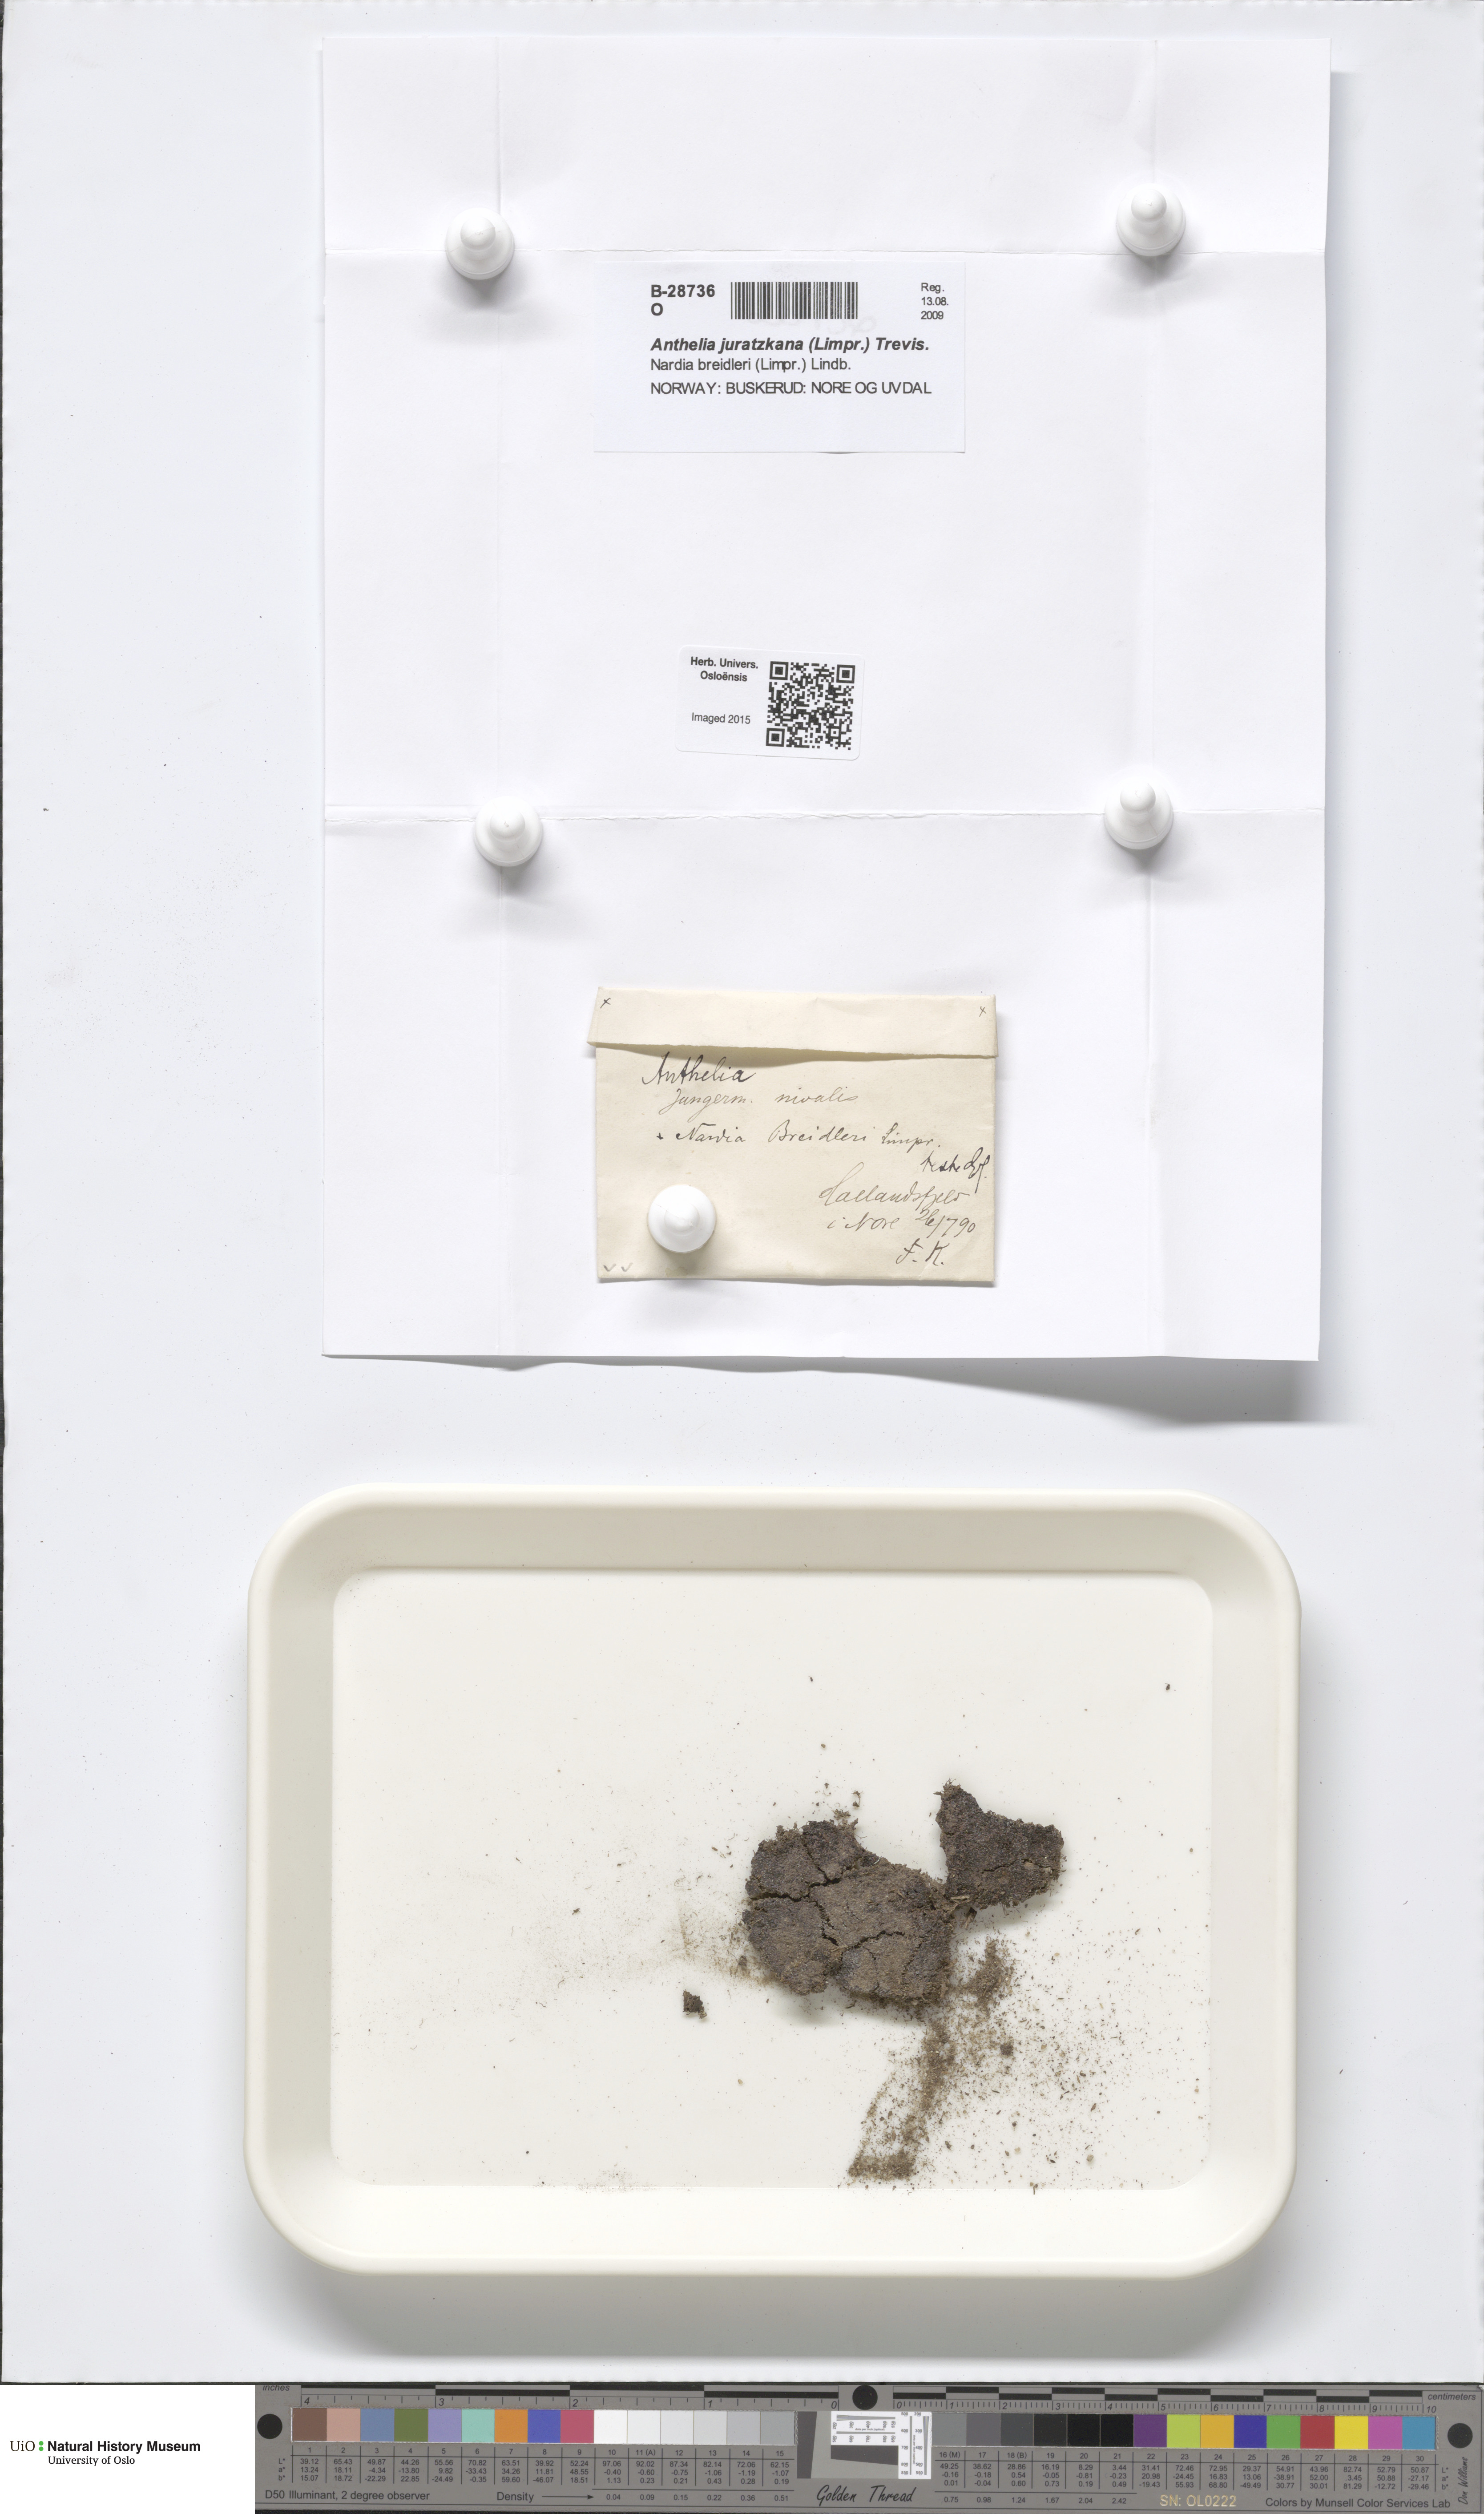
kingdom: Plantae
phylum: Marchantiophyta
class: Jungermanniopsida
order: Jungermanniales
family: Antheliaceae
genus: Anthelia
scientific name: Anthelia juratzkana
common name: Juratzka s silverwort
